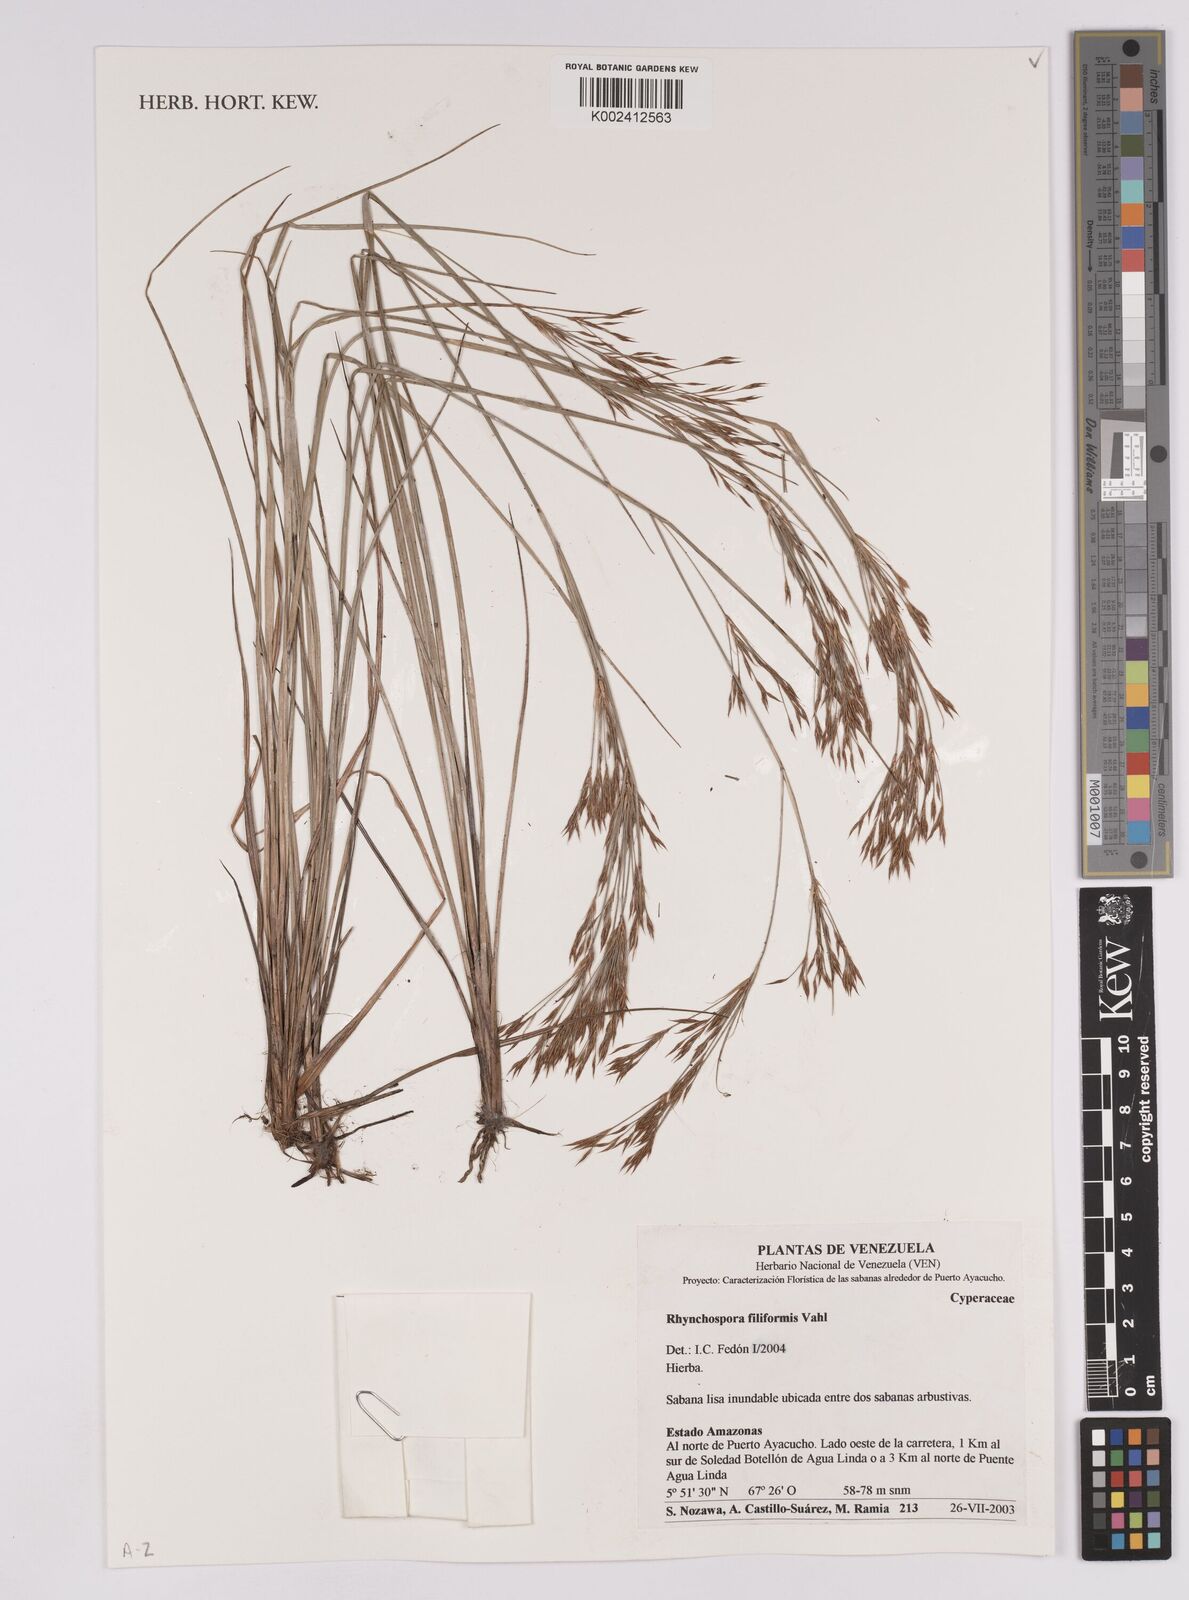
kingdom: Plantae
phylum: Tracheophyta
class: Liliopsida
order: Poales
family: Cyperaceae
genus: Rhynchospora
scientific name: Rhynchospora filiformis
